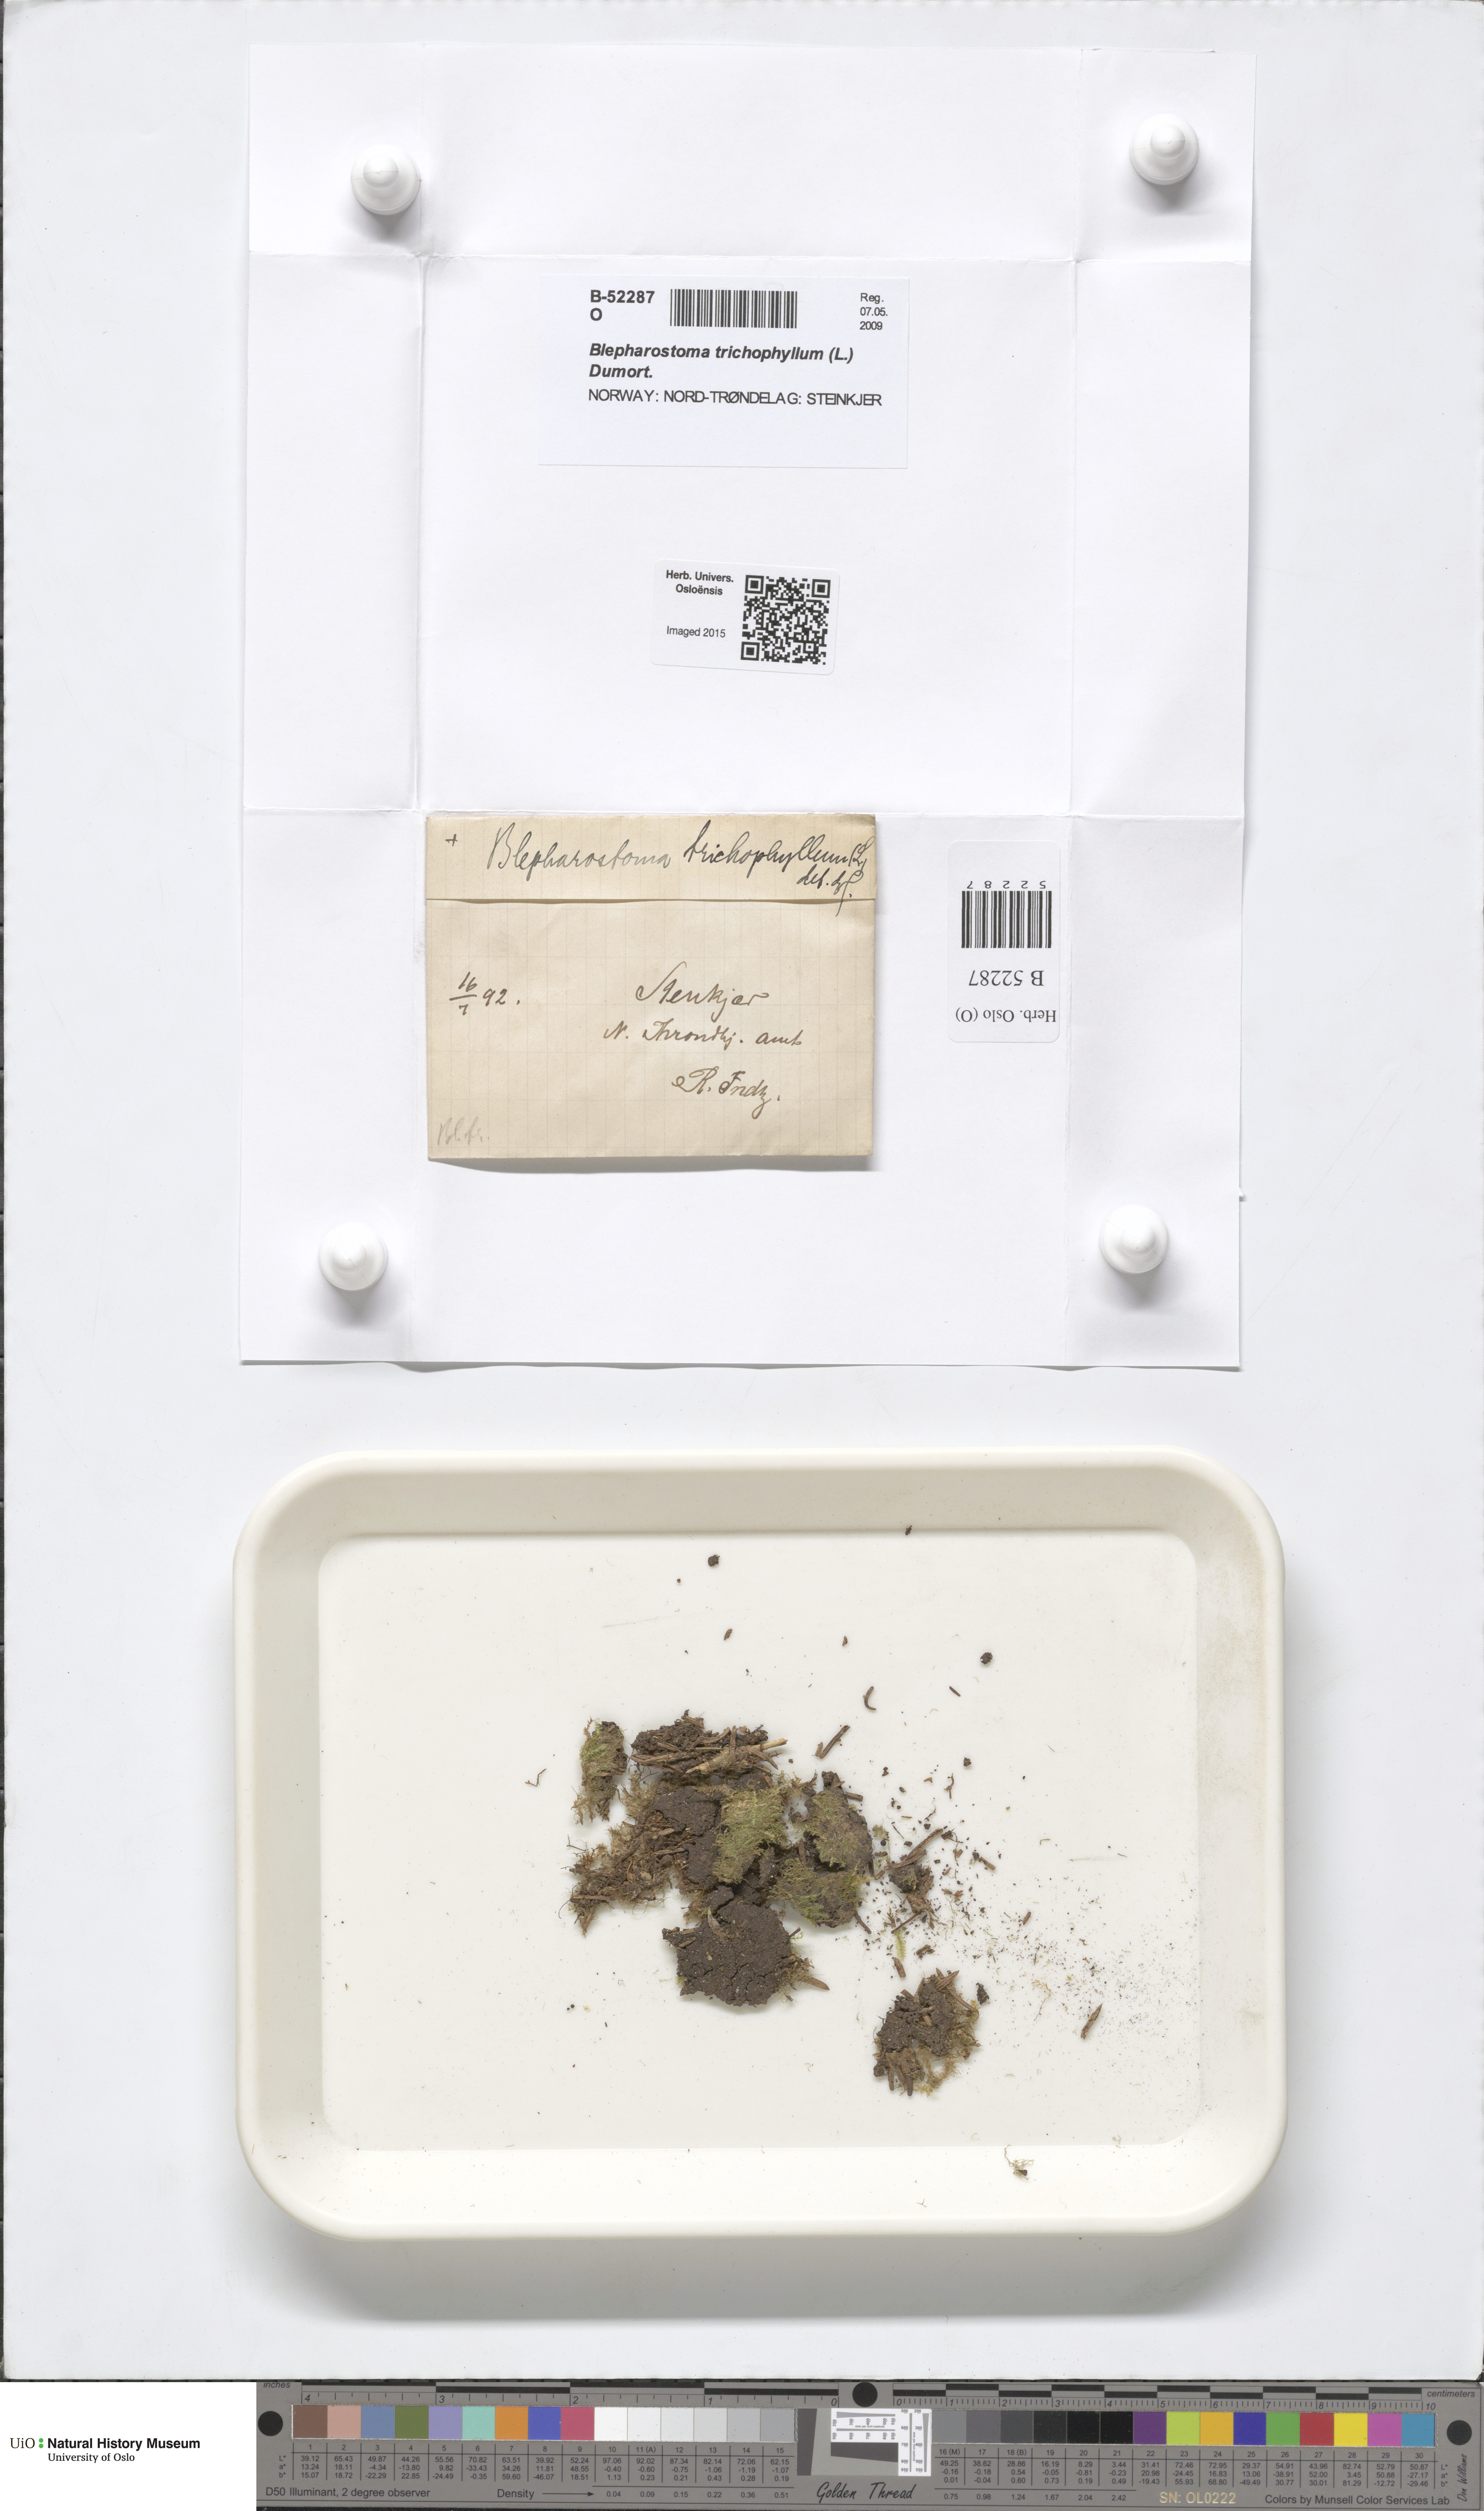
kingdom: Plantae
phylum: Marchantiophyta
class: Jungermanniopsida
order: Jungermanniales
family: Blepharostomataceae
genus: Blepharostoma
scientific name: Blepharostoma trichophyllum
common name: Hairy threadwort
